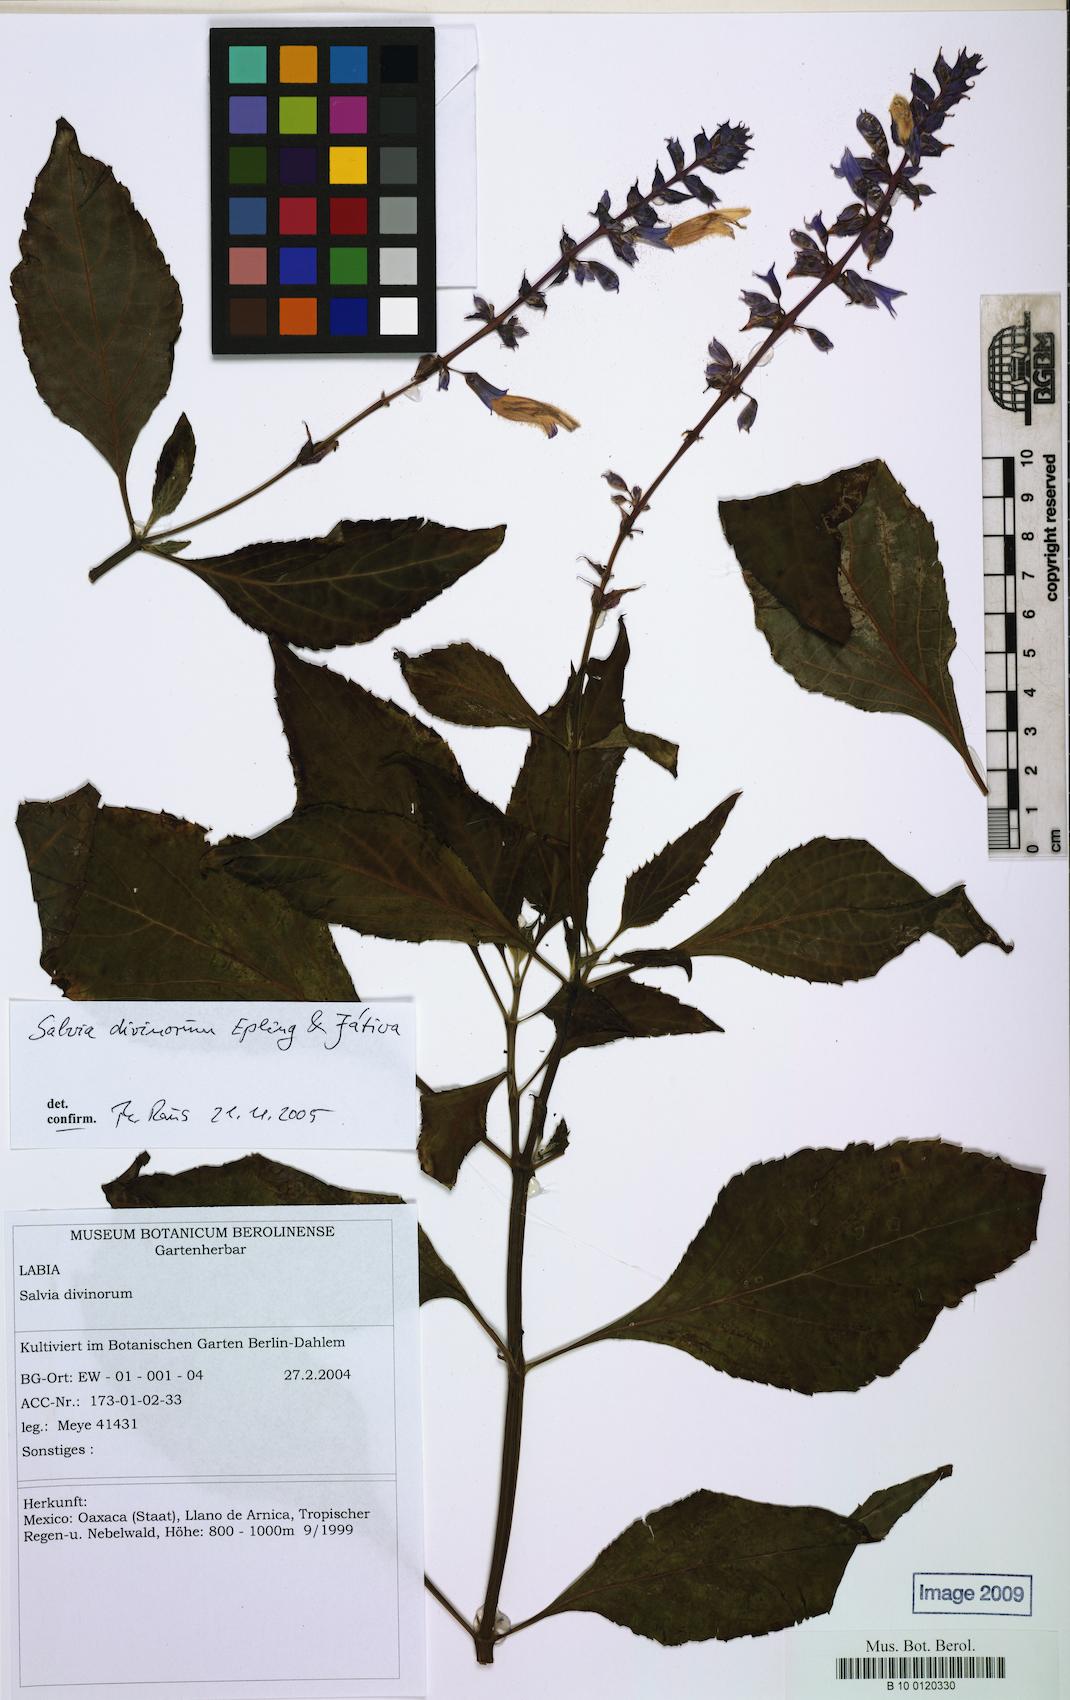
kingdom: Plantae
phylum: Tracheophyta
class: Magnoliopsida
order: Lamiales
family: Lamiaceae
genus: Salvia
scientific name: Salvia divinorum
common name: Divining sage
